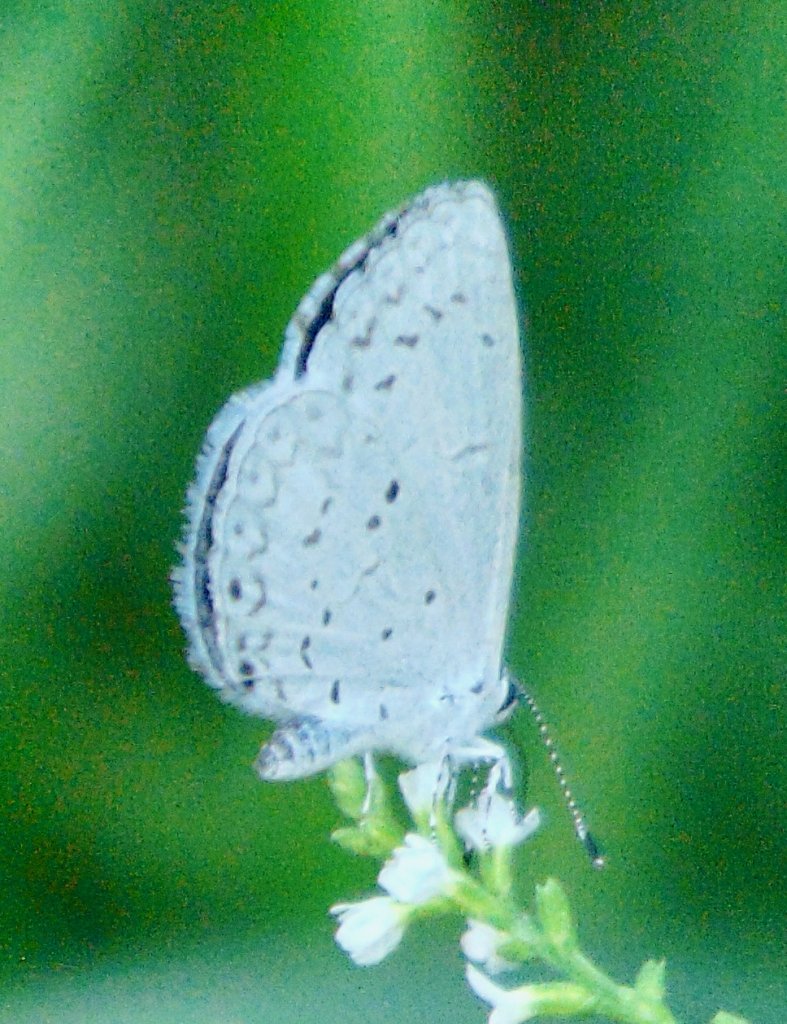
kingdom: Animalia
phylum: Arthropoda
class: Insecta
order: Lepidoptera
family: Lycaenidae
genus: Cyaniris
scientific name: Cyaniris neglecta
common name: Summer Azure
